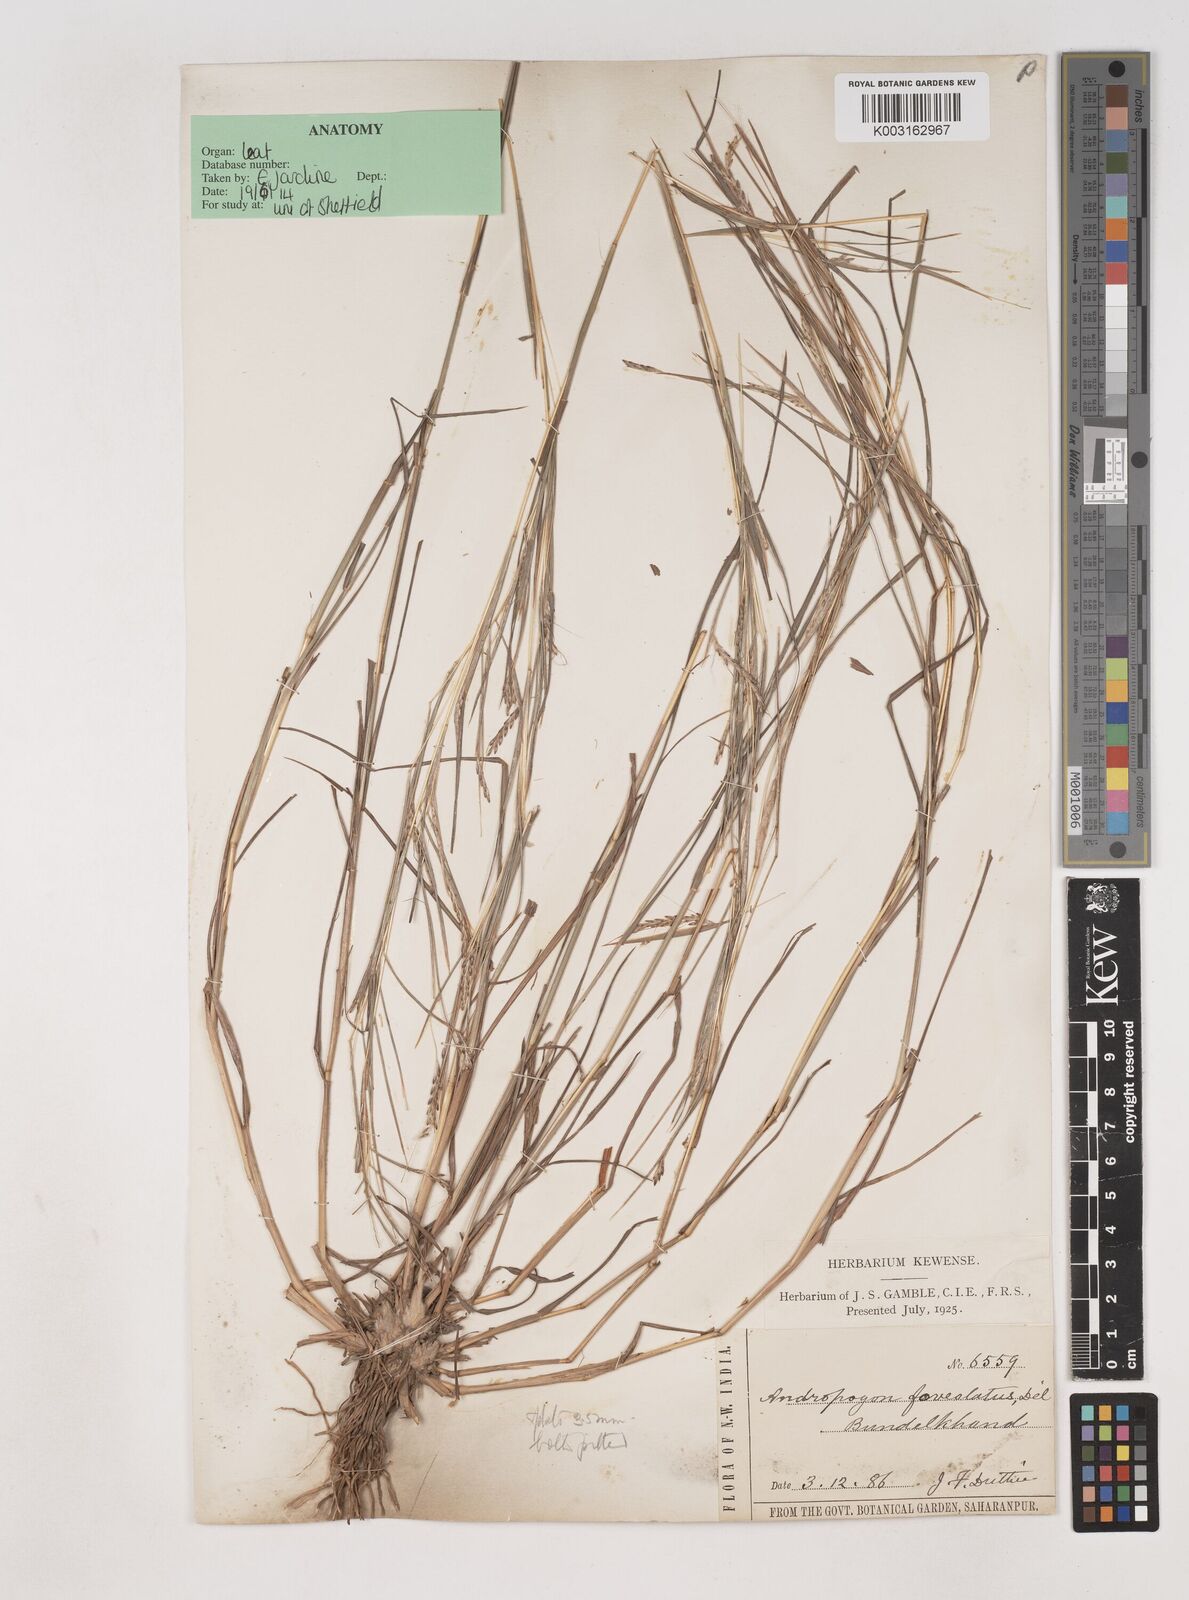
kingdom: Plantae
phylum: Tracheophyta
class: Liliopsida
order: Poales
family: Poaceae
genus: Dichanthium
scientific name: Dichanthium foveolatum
